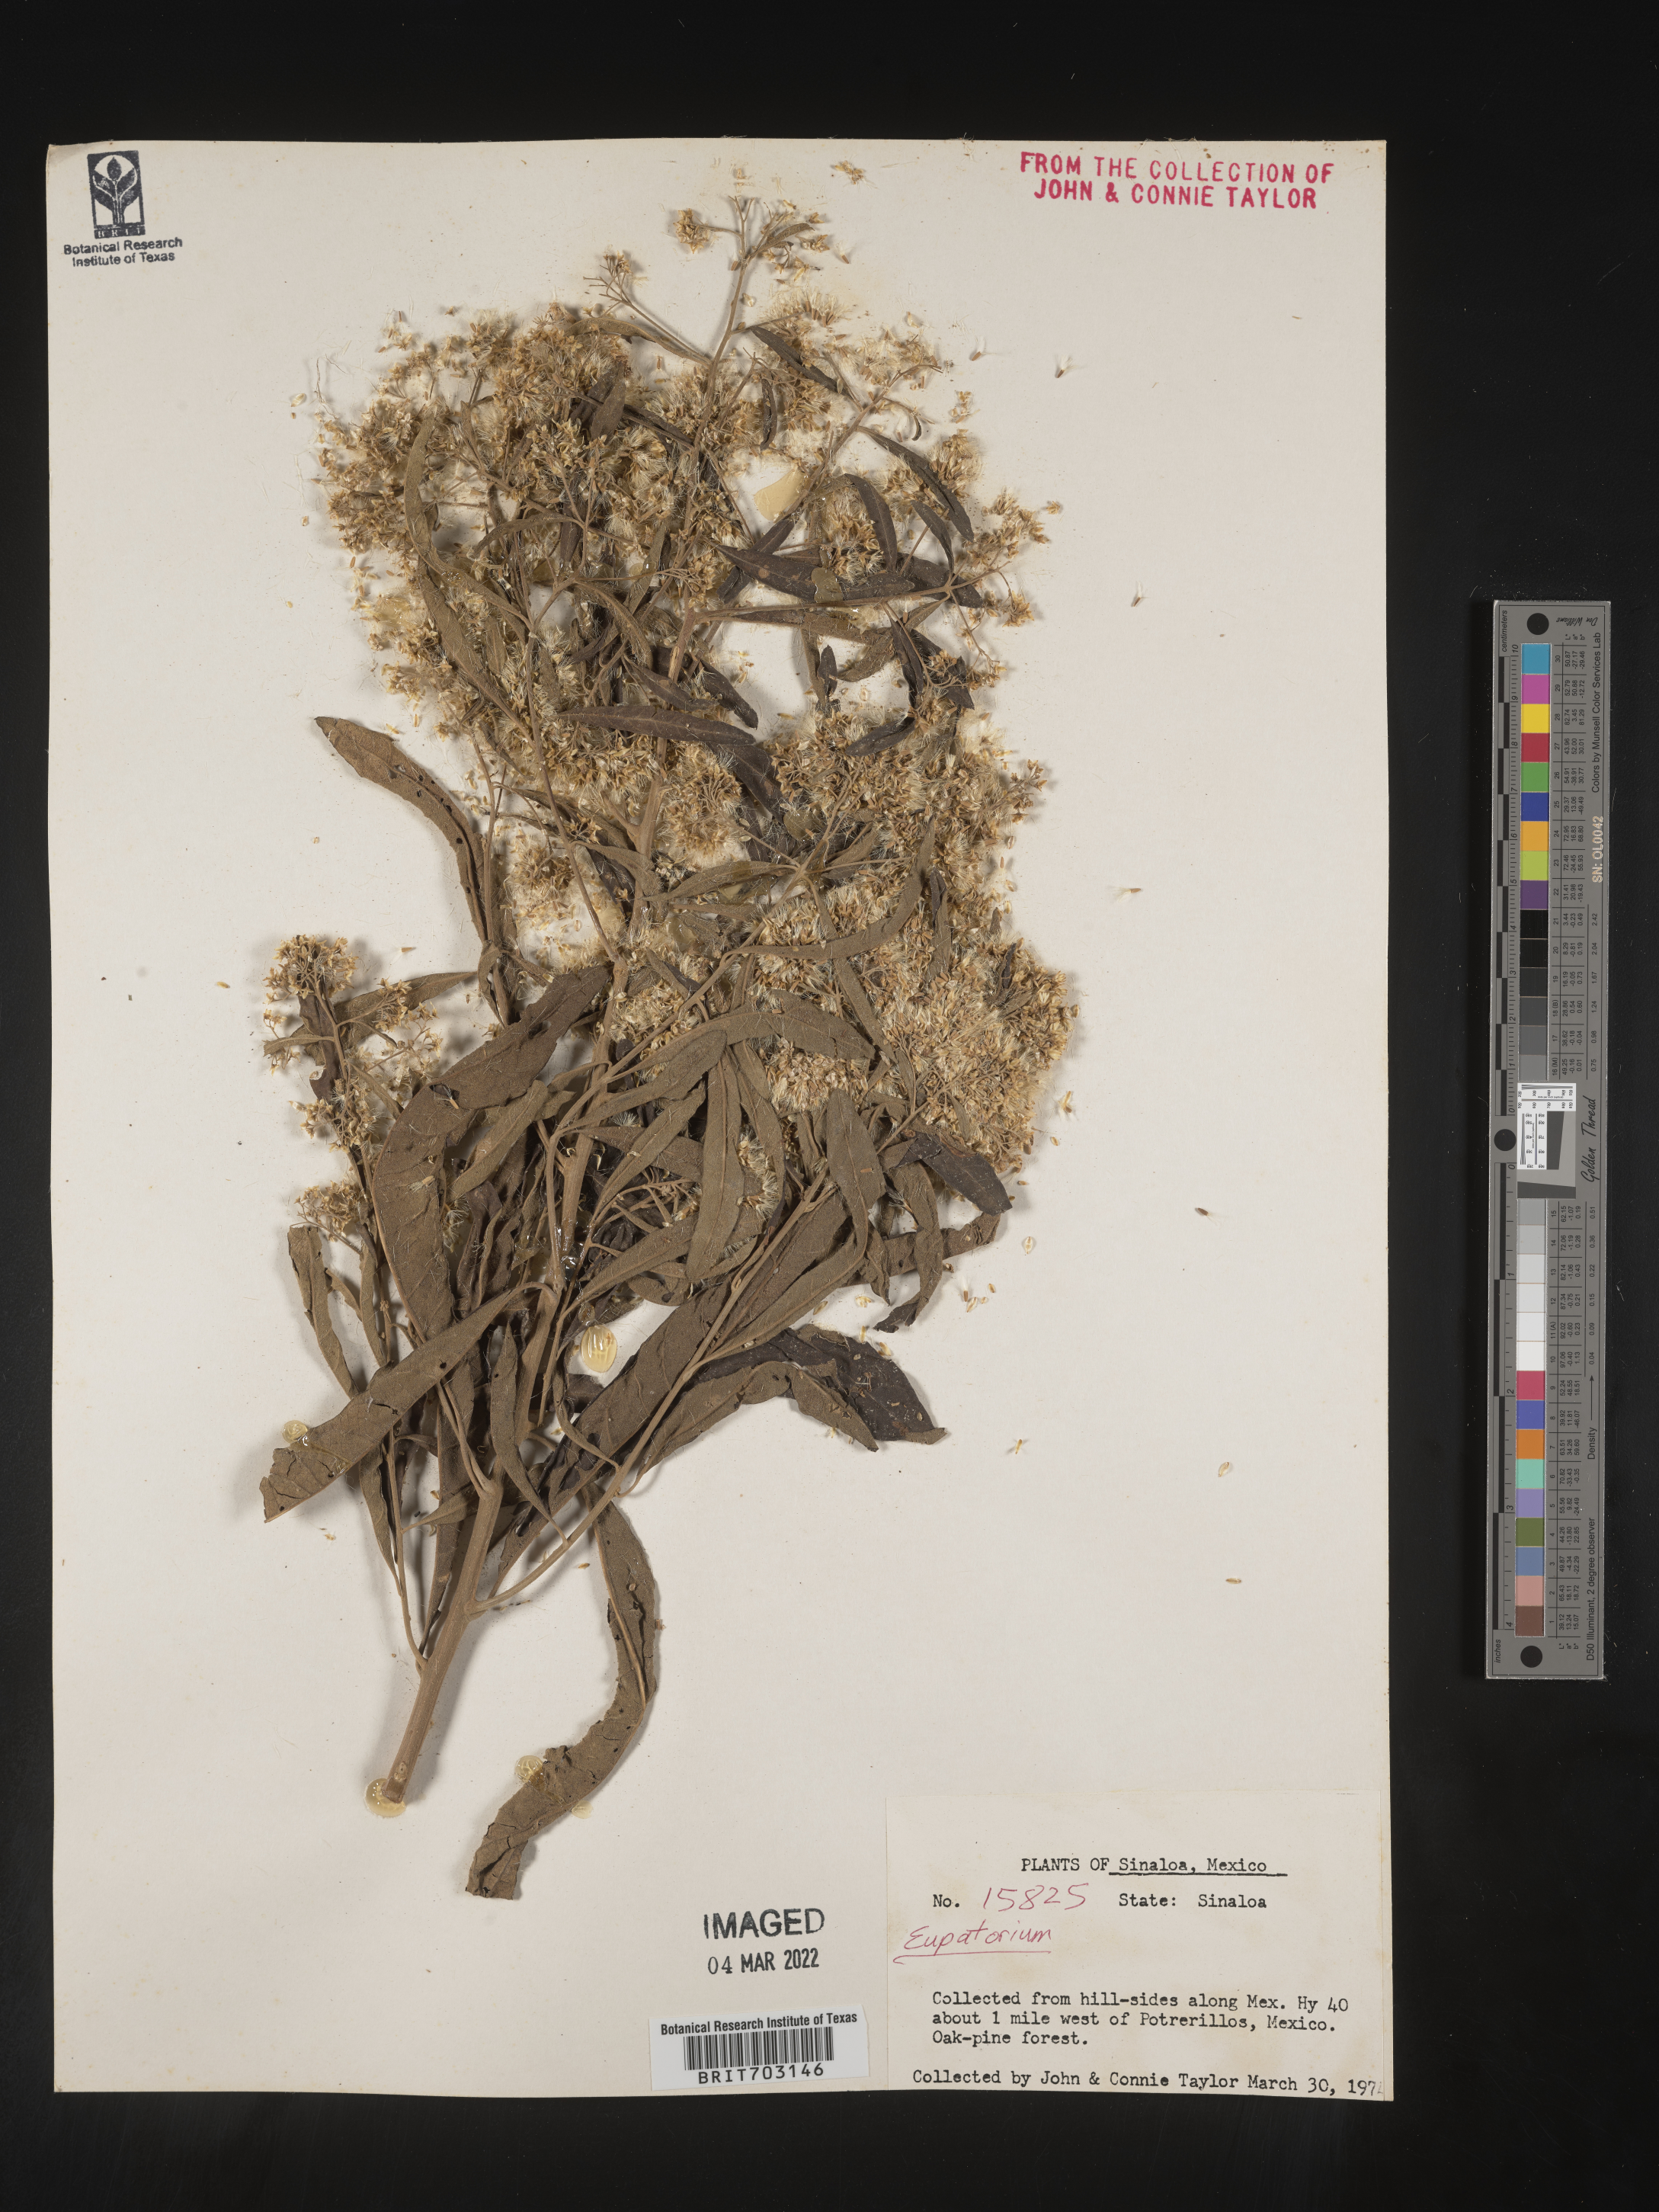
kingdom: Plantae
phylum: Tracheophyta
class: Magnoliopsida
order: Asterales
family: Asteraceae
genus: Eupatorium
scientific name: Eupatorium
